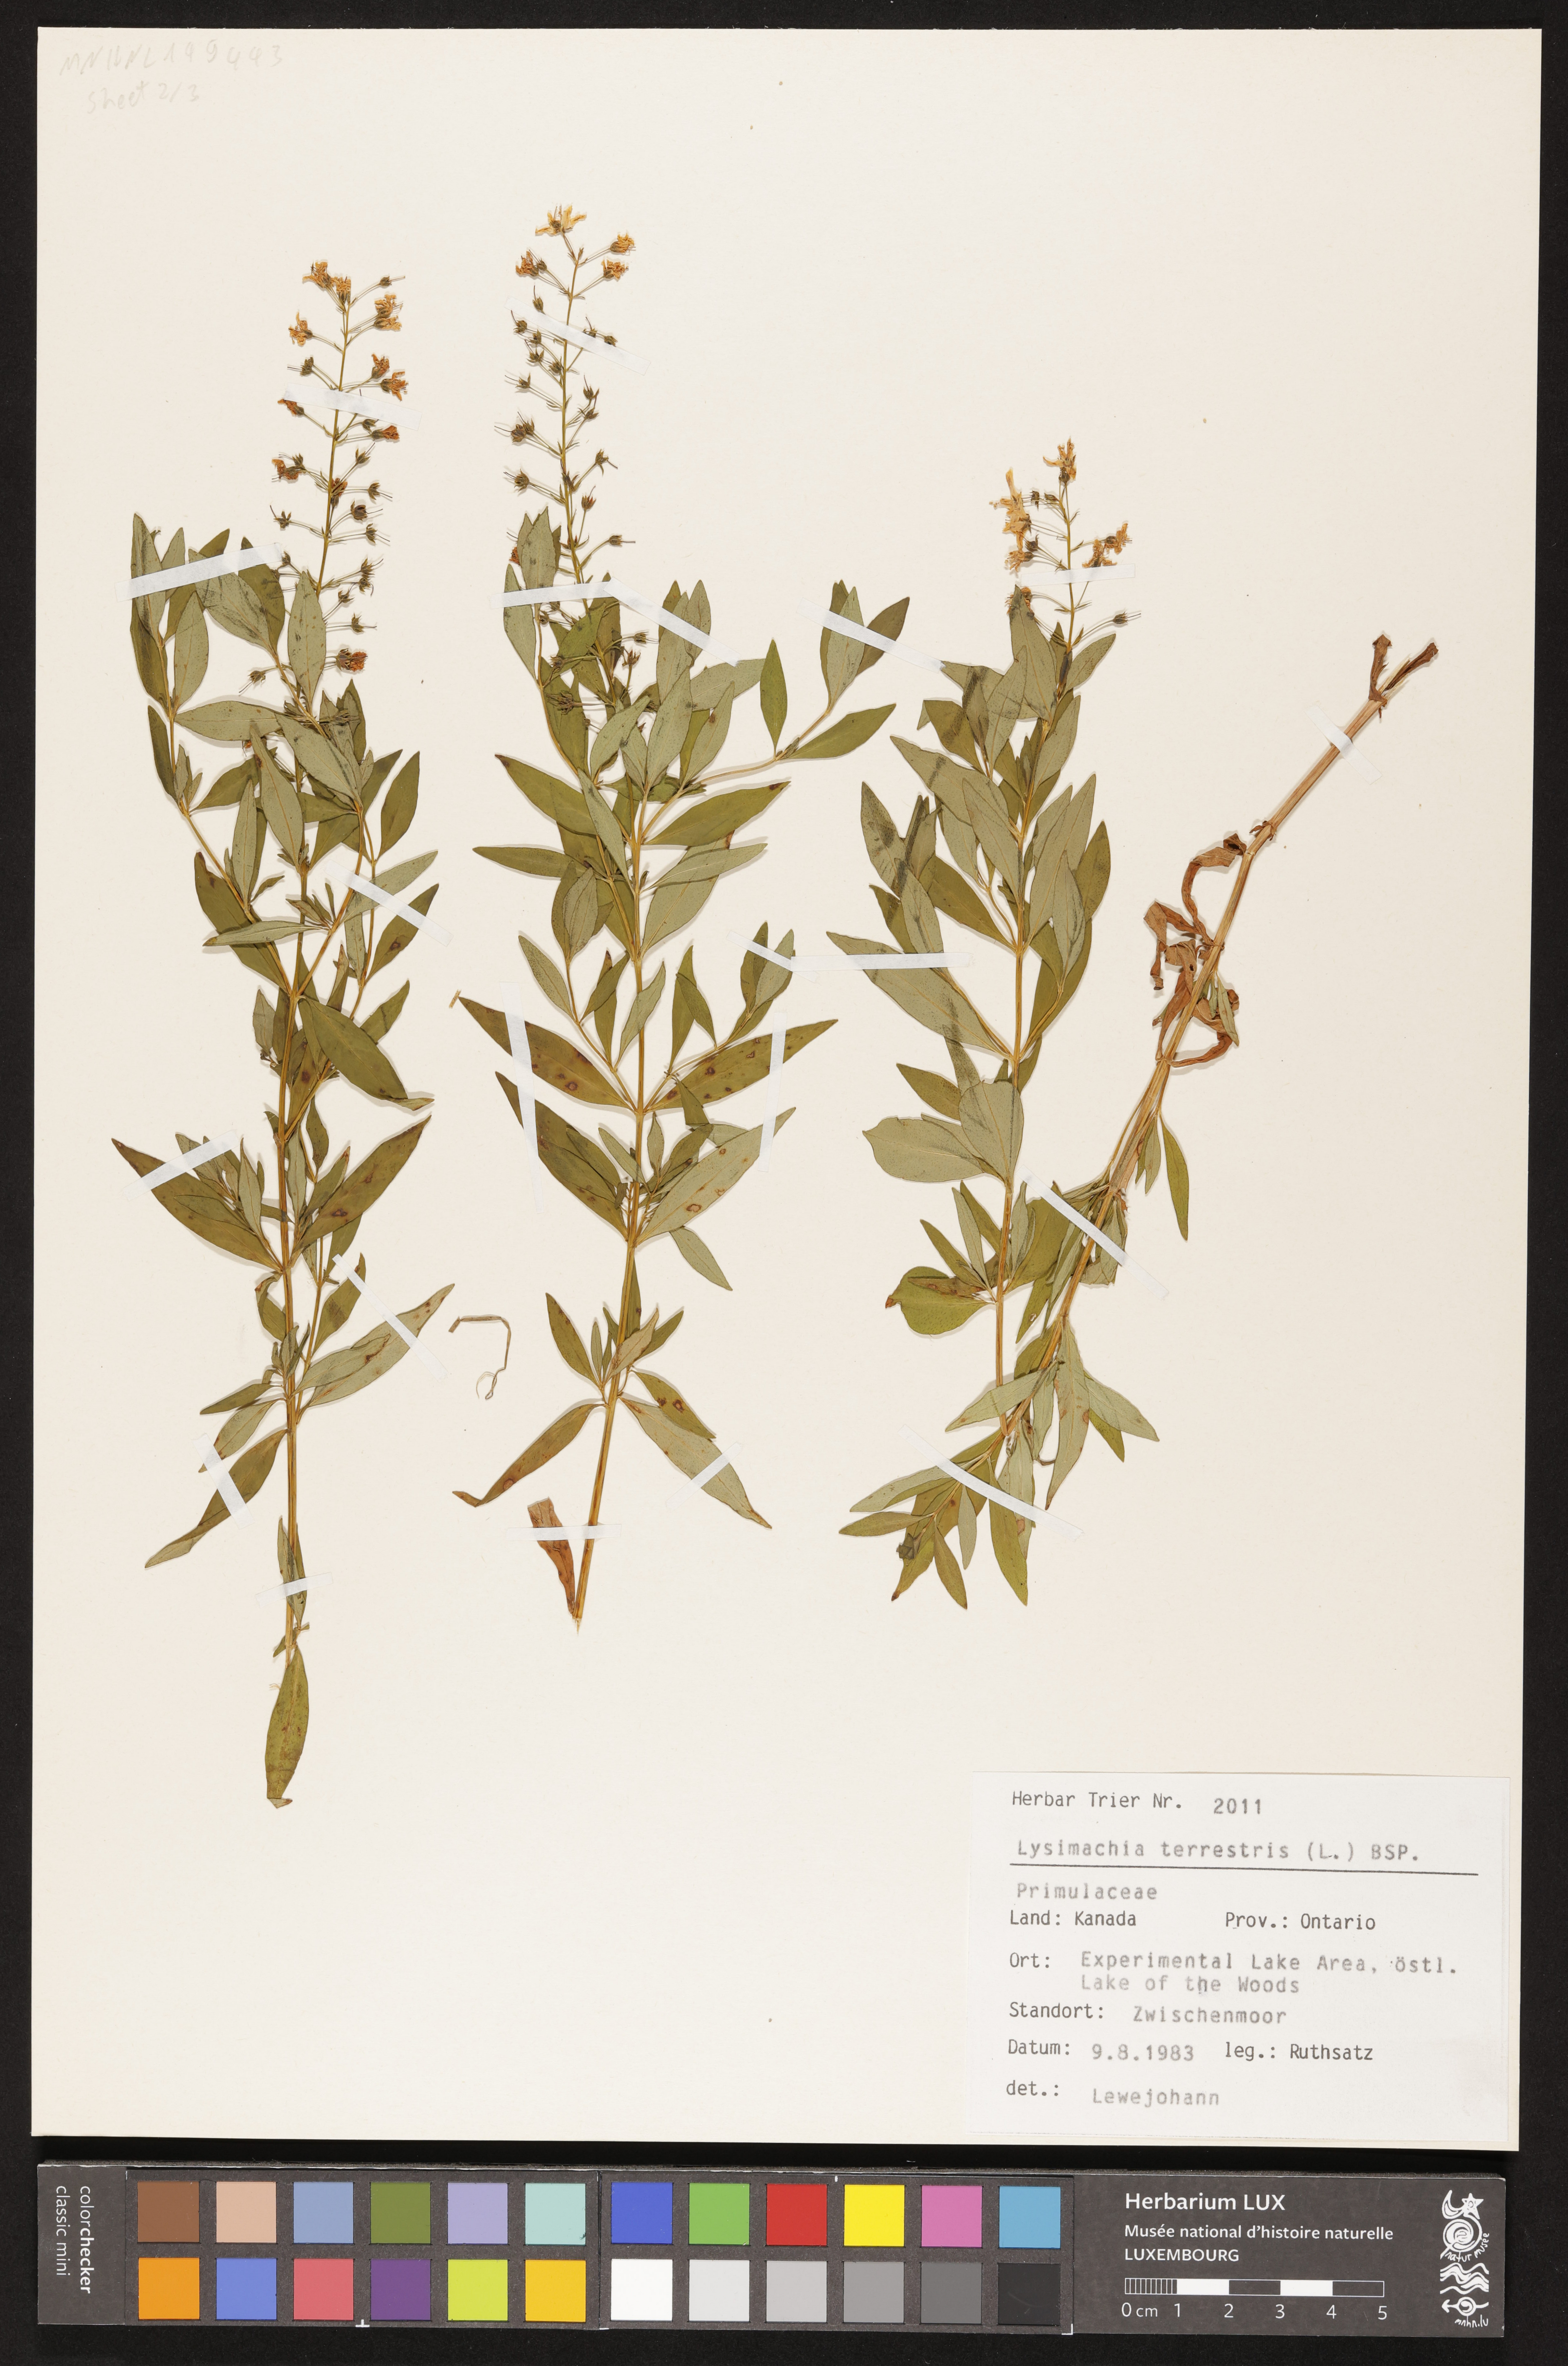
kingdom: Plantae
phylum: Tracheophyta
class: Magnoliopsida
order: Ericales
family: Primulaceae
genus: Lysimachia
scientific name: Lysimachia terrestris
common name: Lake loosestrife
